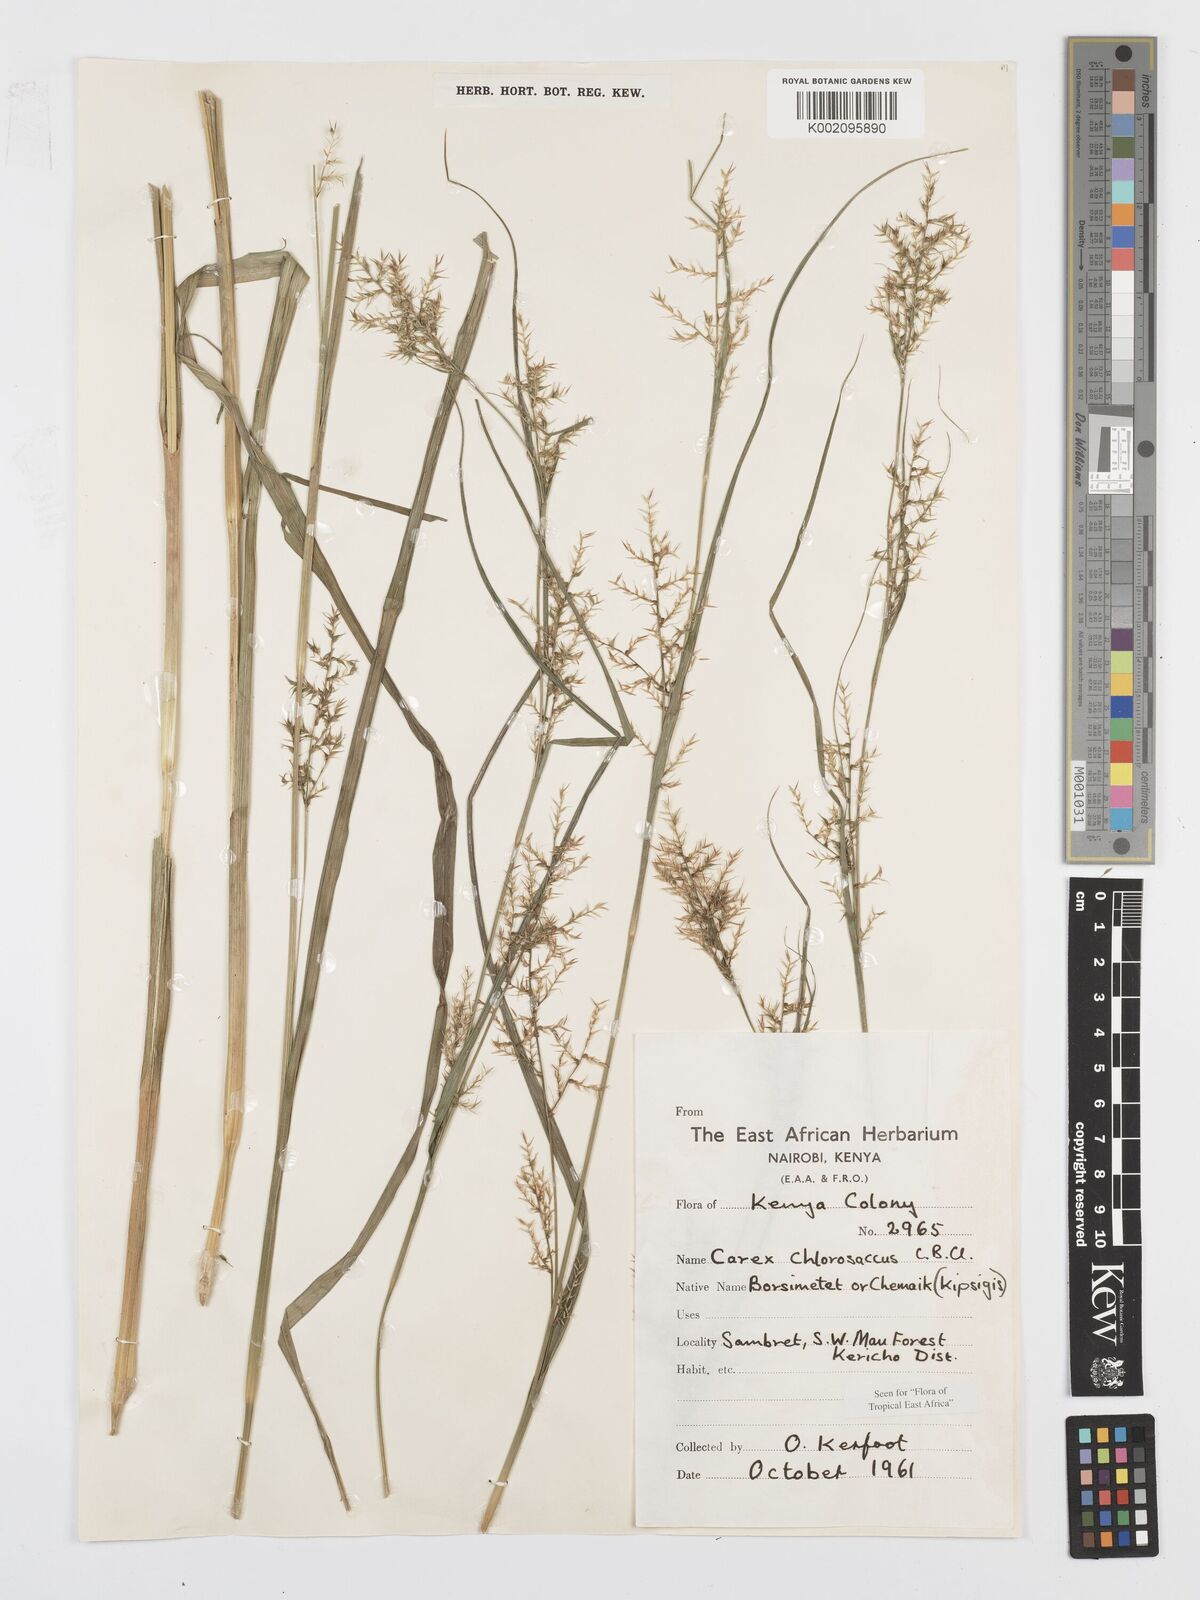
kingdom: Plantae
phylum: Tracheophyta
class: Liliopsida
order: Poales
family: Cyperaceae
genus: Carex
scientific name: Carex chlorosaccus
